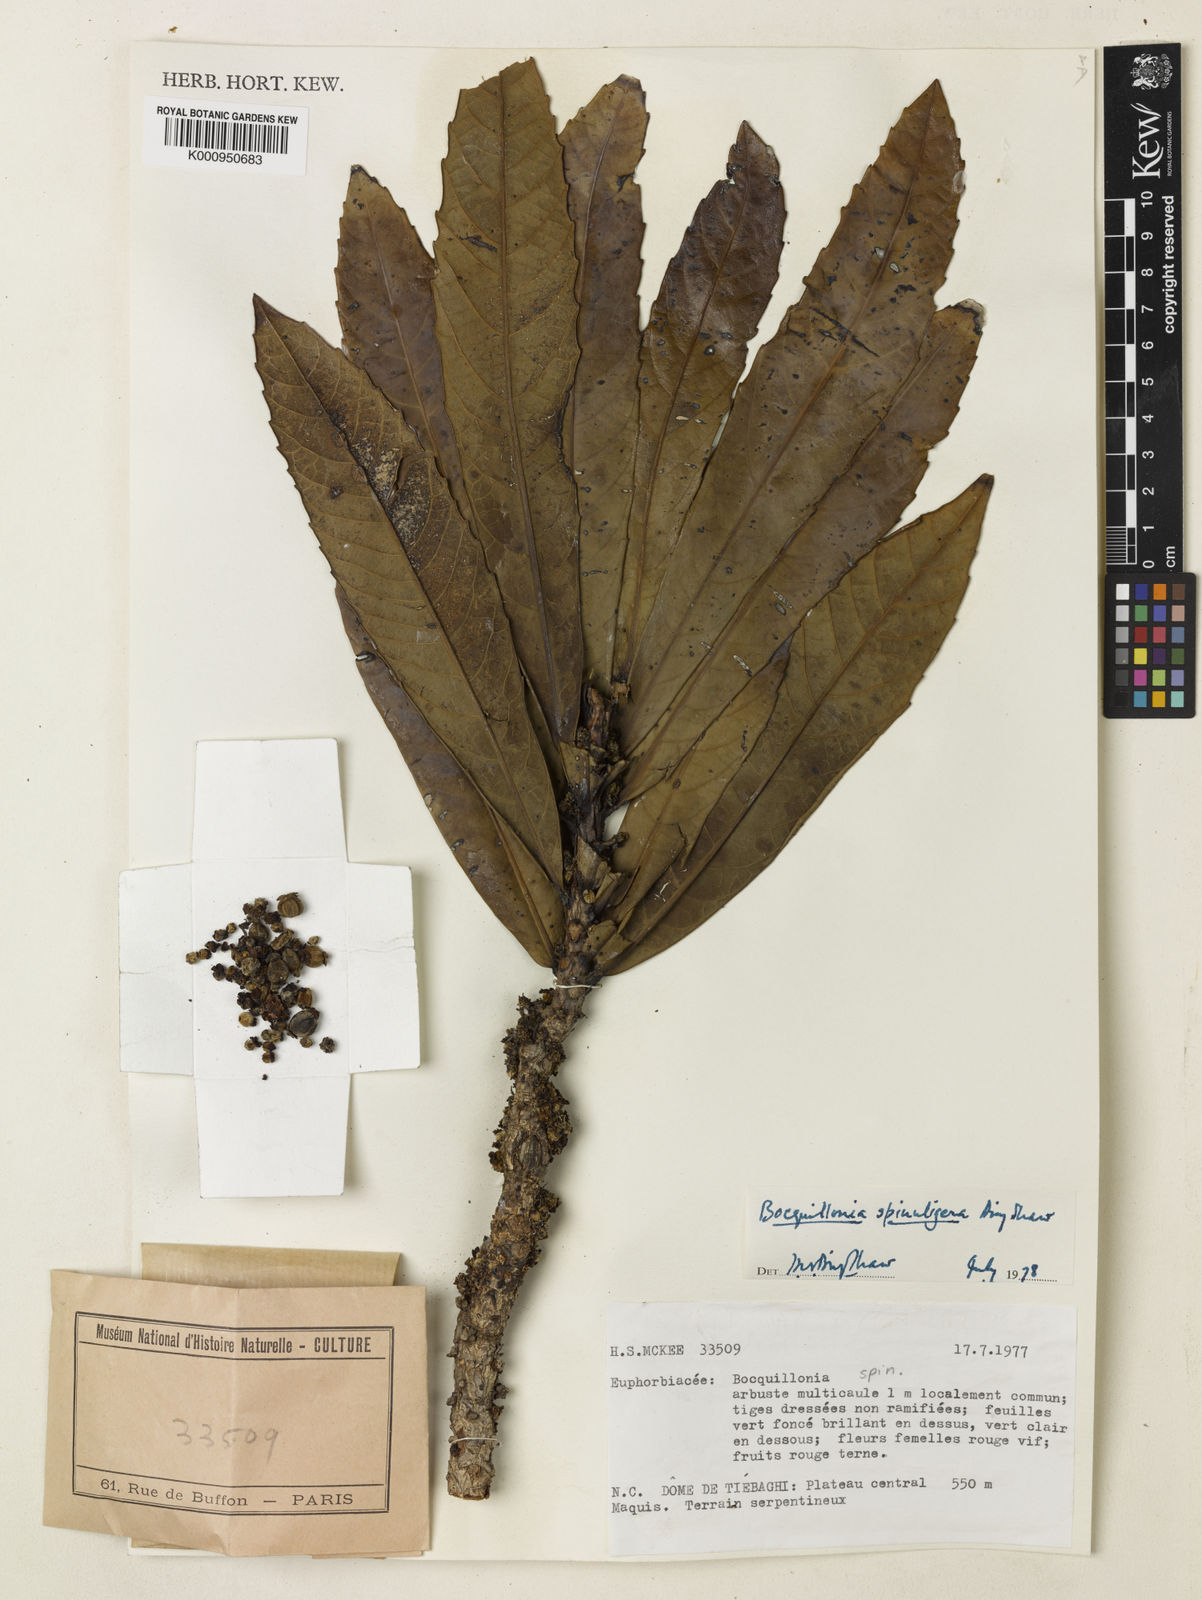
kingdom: Plantae
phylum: Tracheophyta
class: Magnoliopsida
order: Malpighiales
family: Euphorbiaceae
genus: Bocquillonia
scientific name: Bocquillonia castaneifolia
